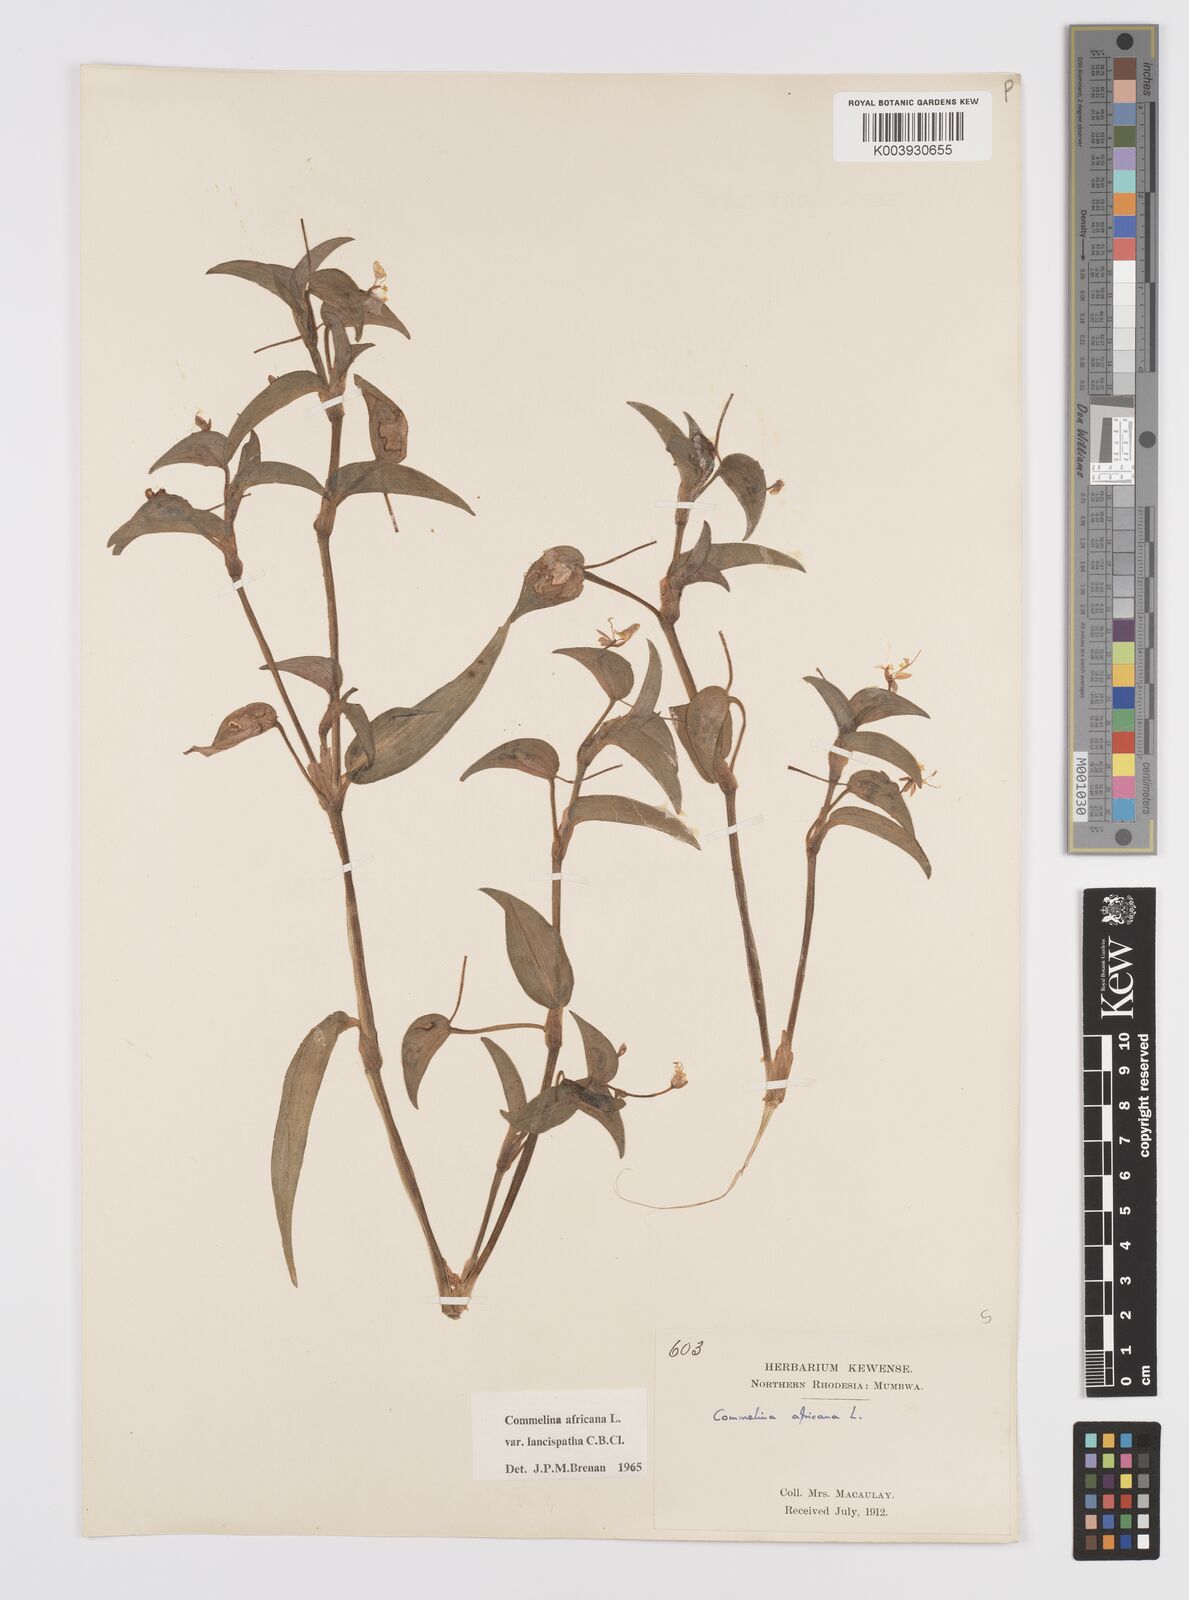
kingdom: Plantae
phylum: Tracheophyta
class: Liliopsida
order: Commelinales
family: Commelinaceae
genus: Commelina
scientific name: Commelina africana
